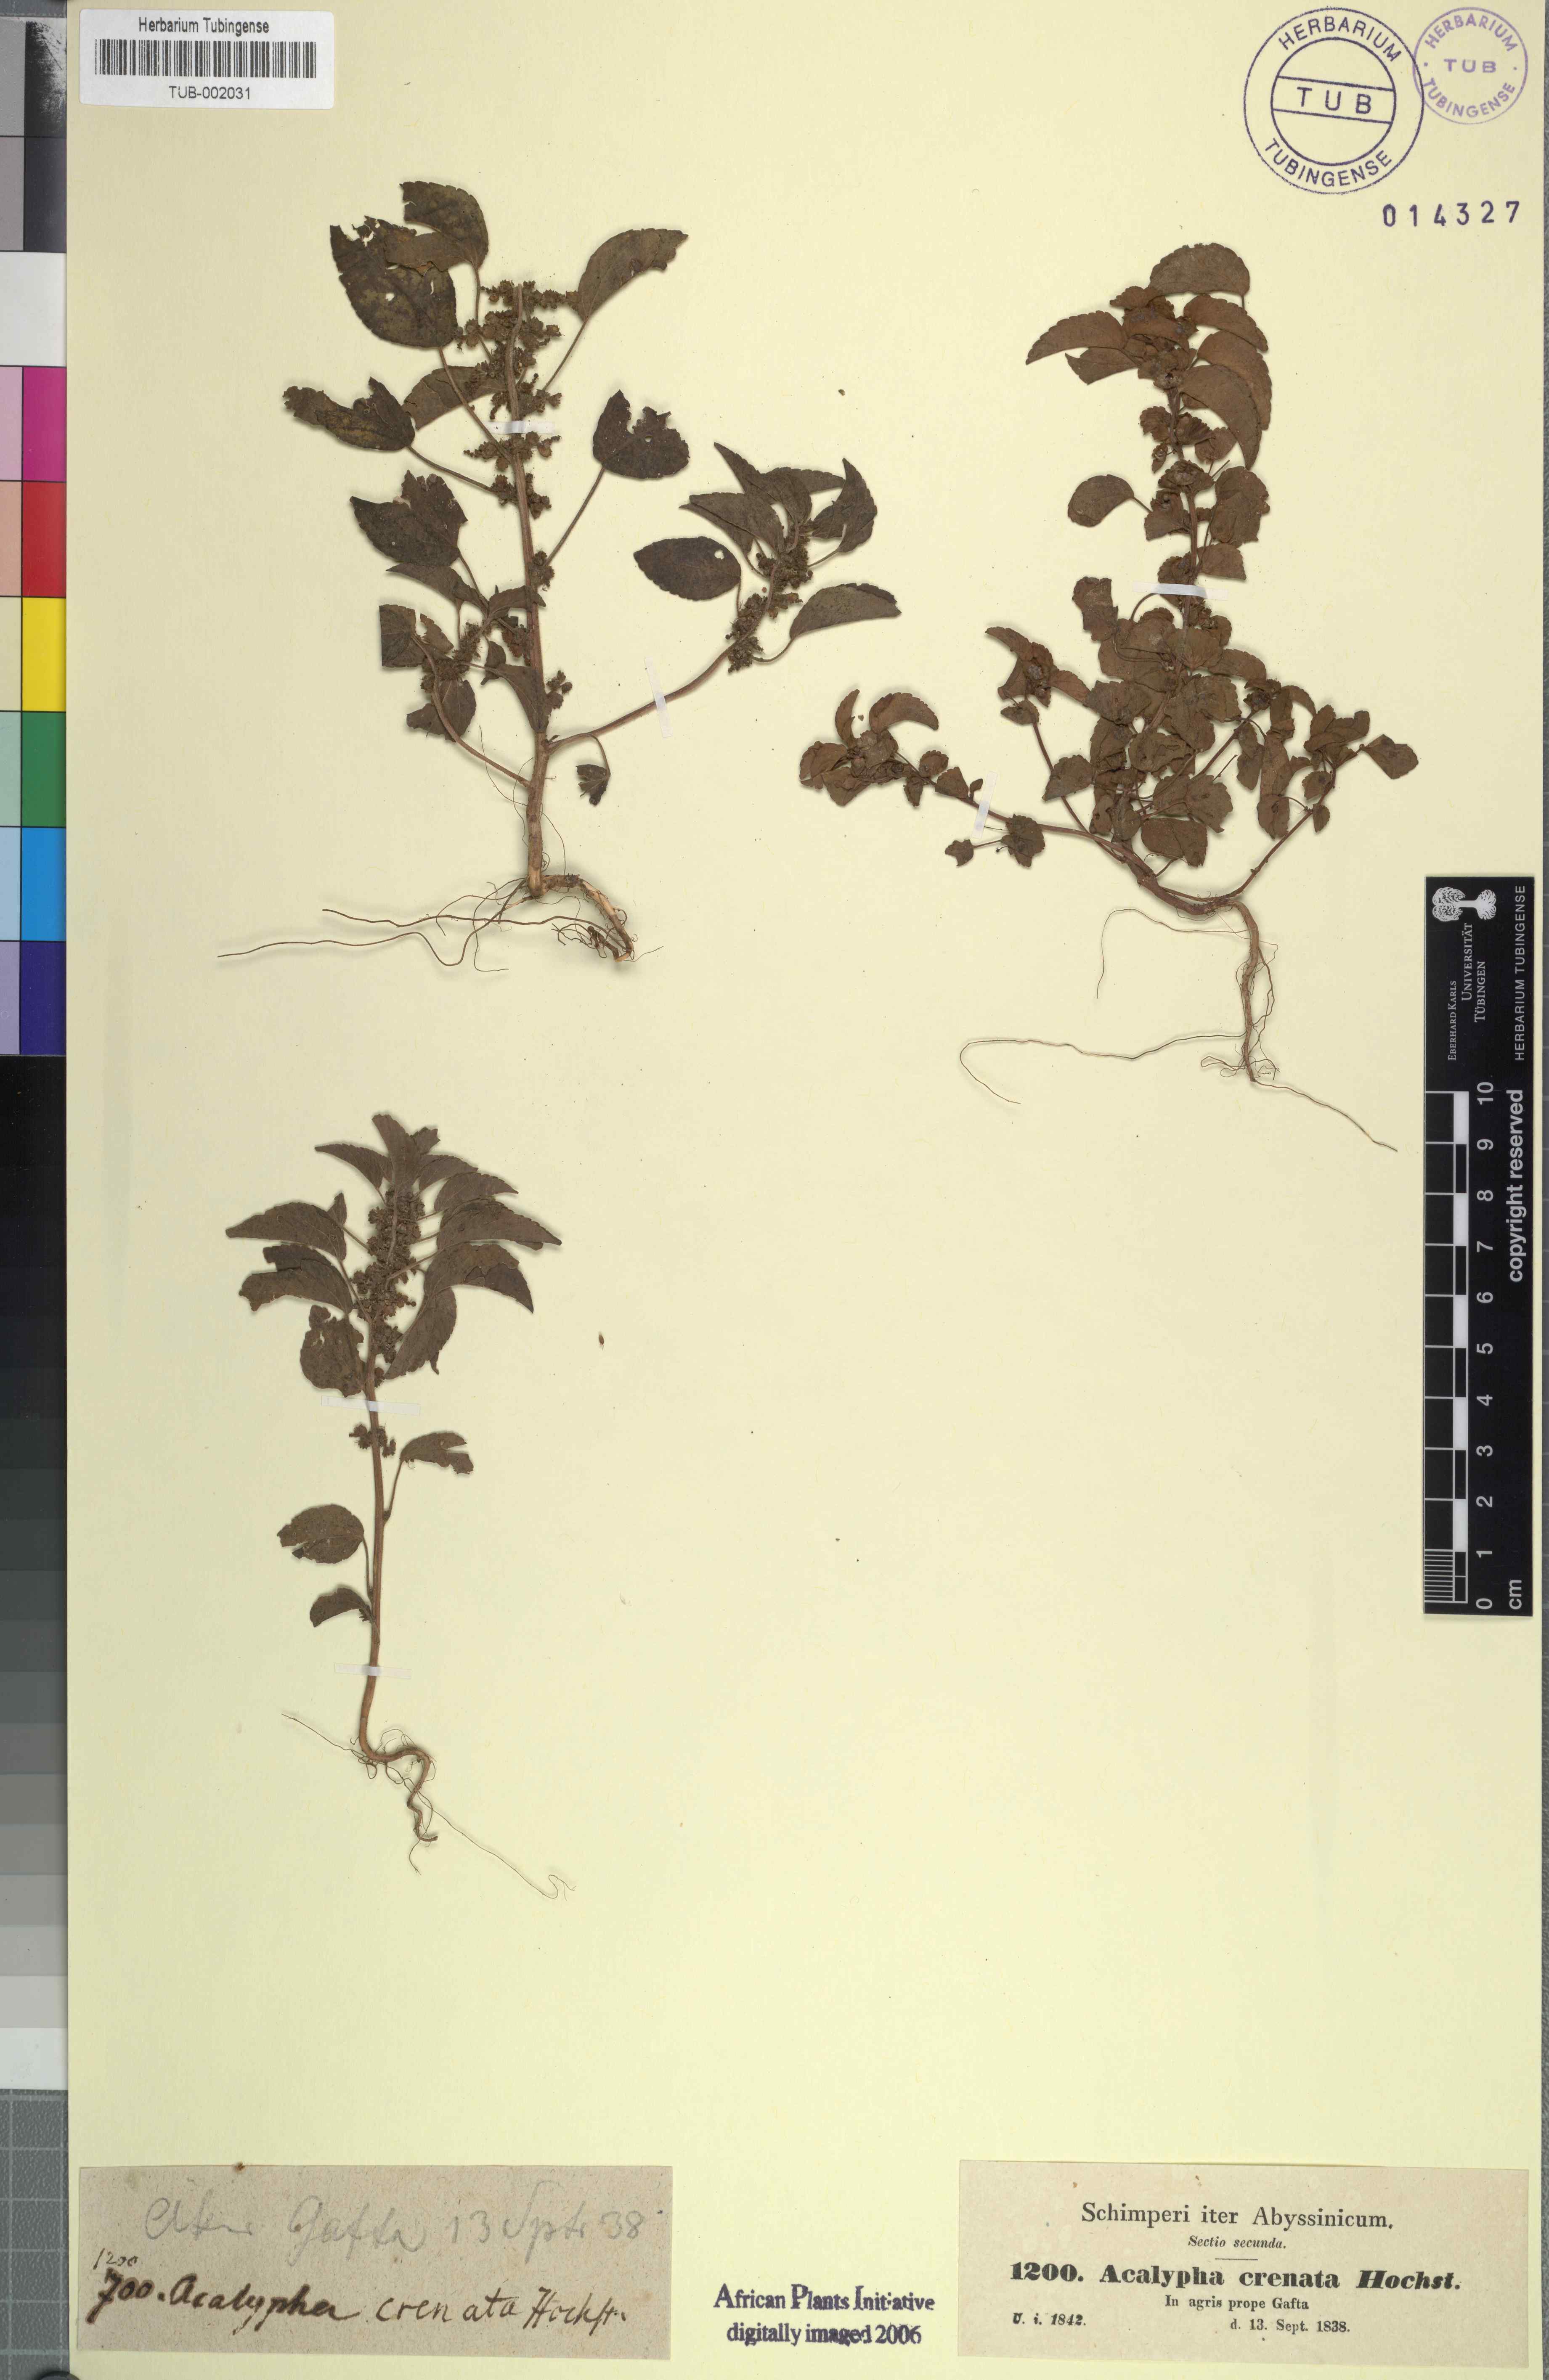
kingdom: Plantae
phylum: Tracheophyta
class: Magnoliopsida
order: Malpighiales
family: Euphorbiaceae
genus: Acalypha
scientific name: Acalypha crenata
